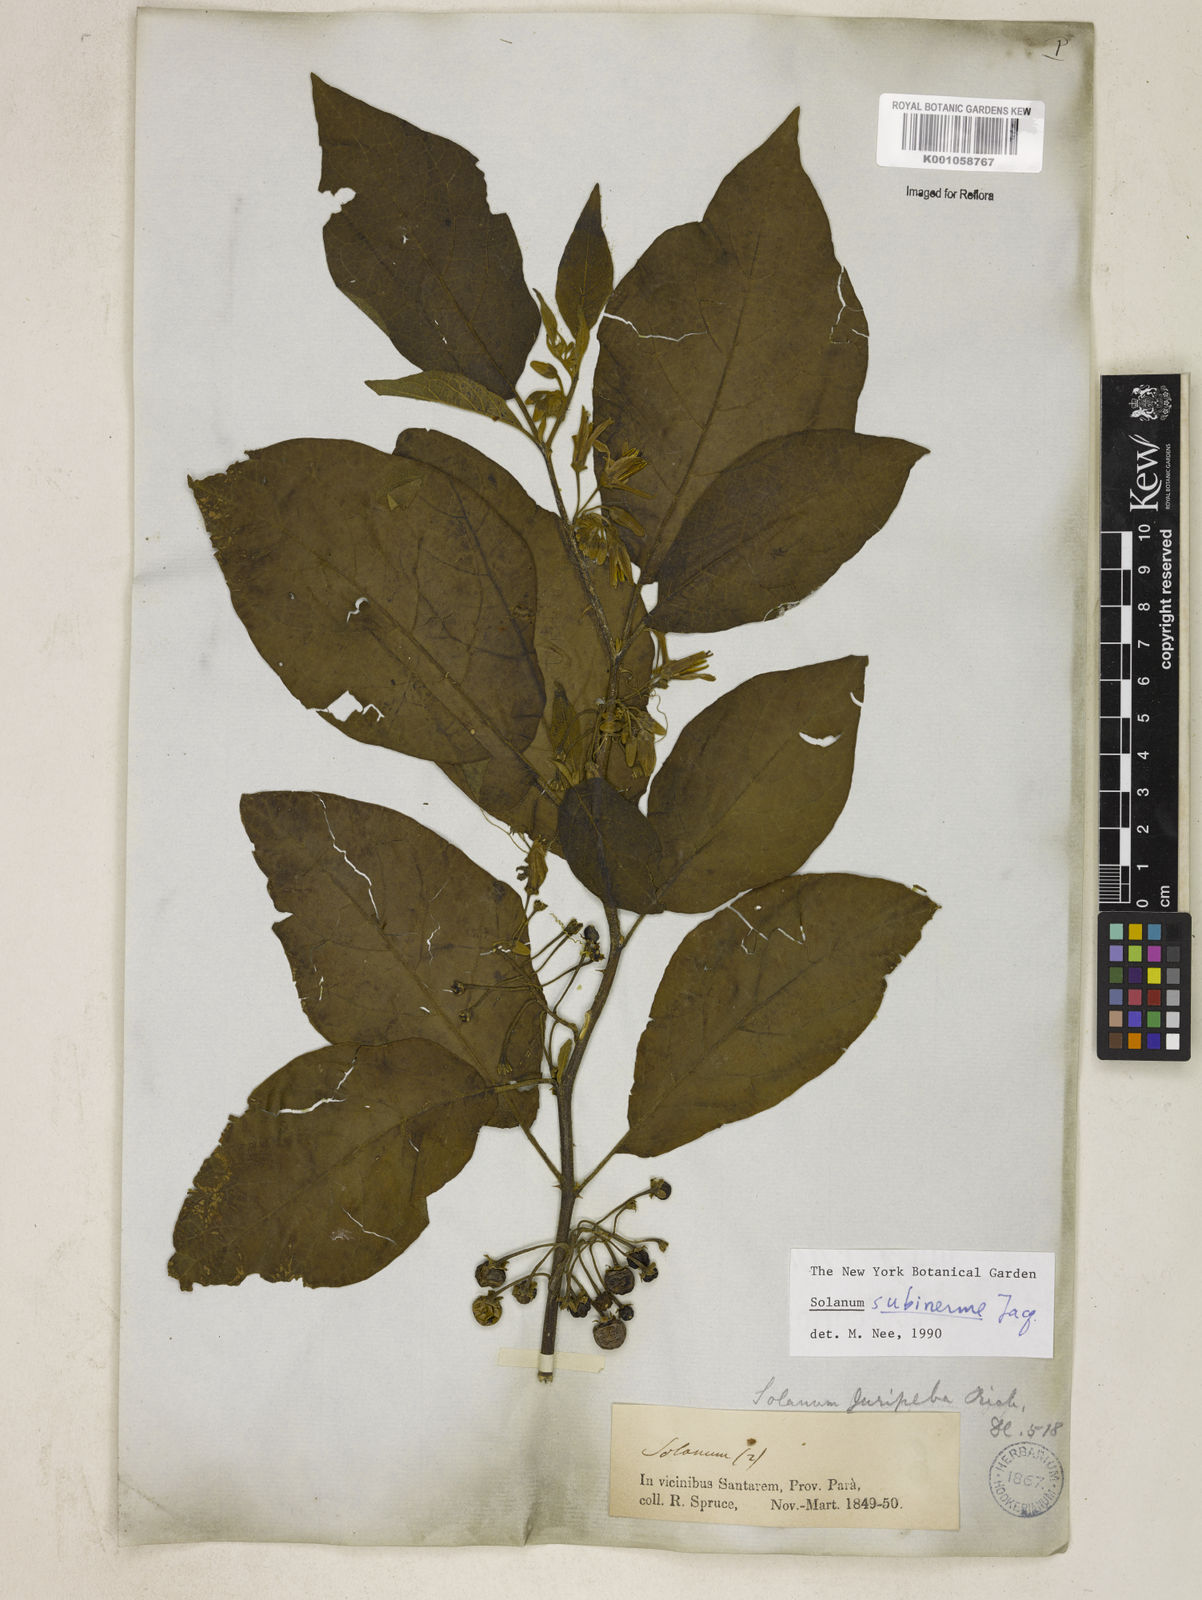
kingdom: Plantae
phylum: Tracheophyta
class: Magnoliopsida
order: Solanales
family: Solanaceae
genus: Solanum
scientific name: Solanum subinerme
